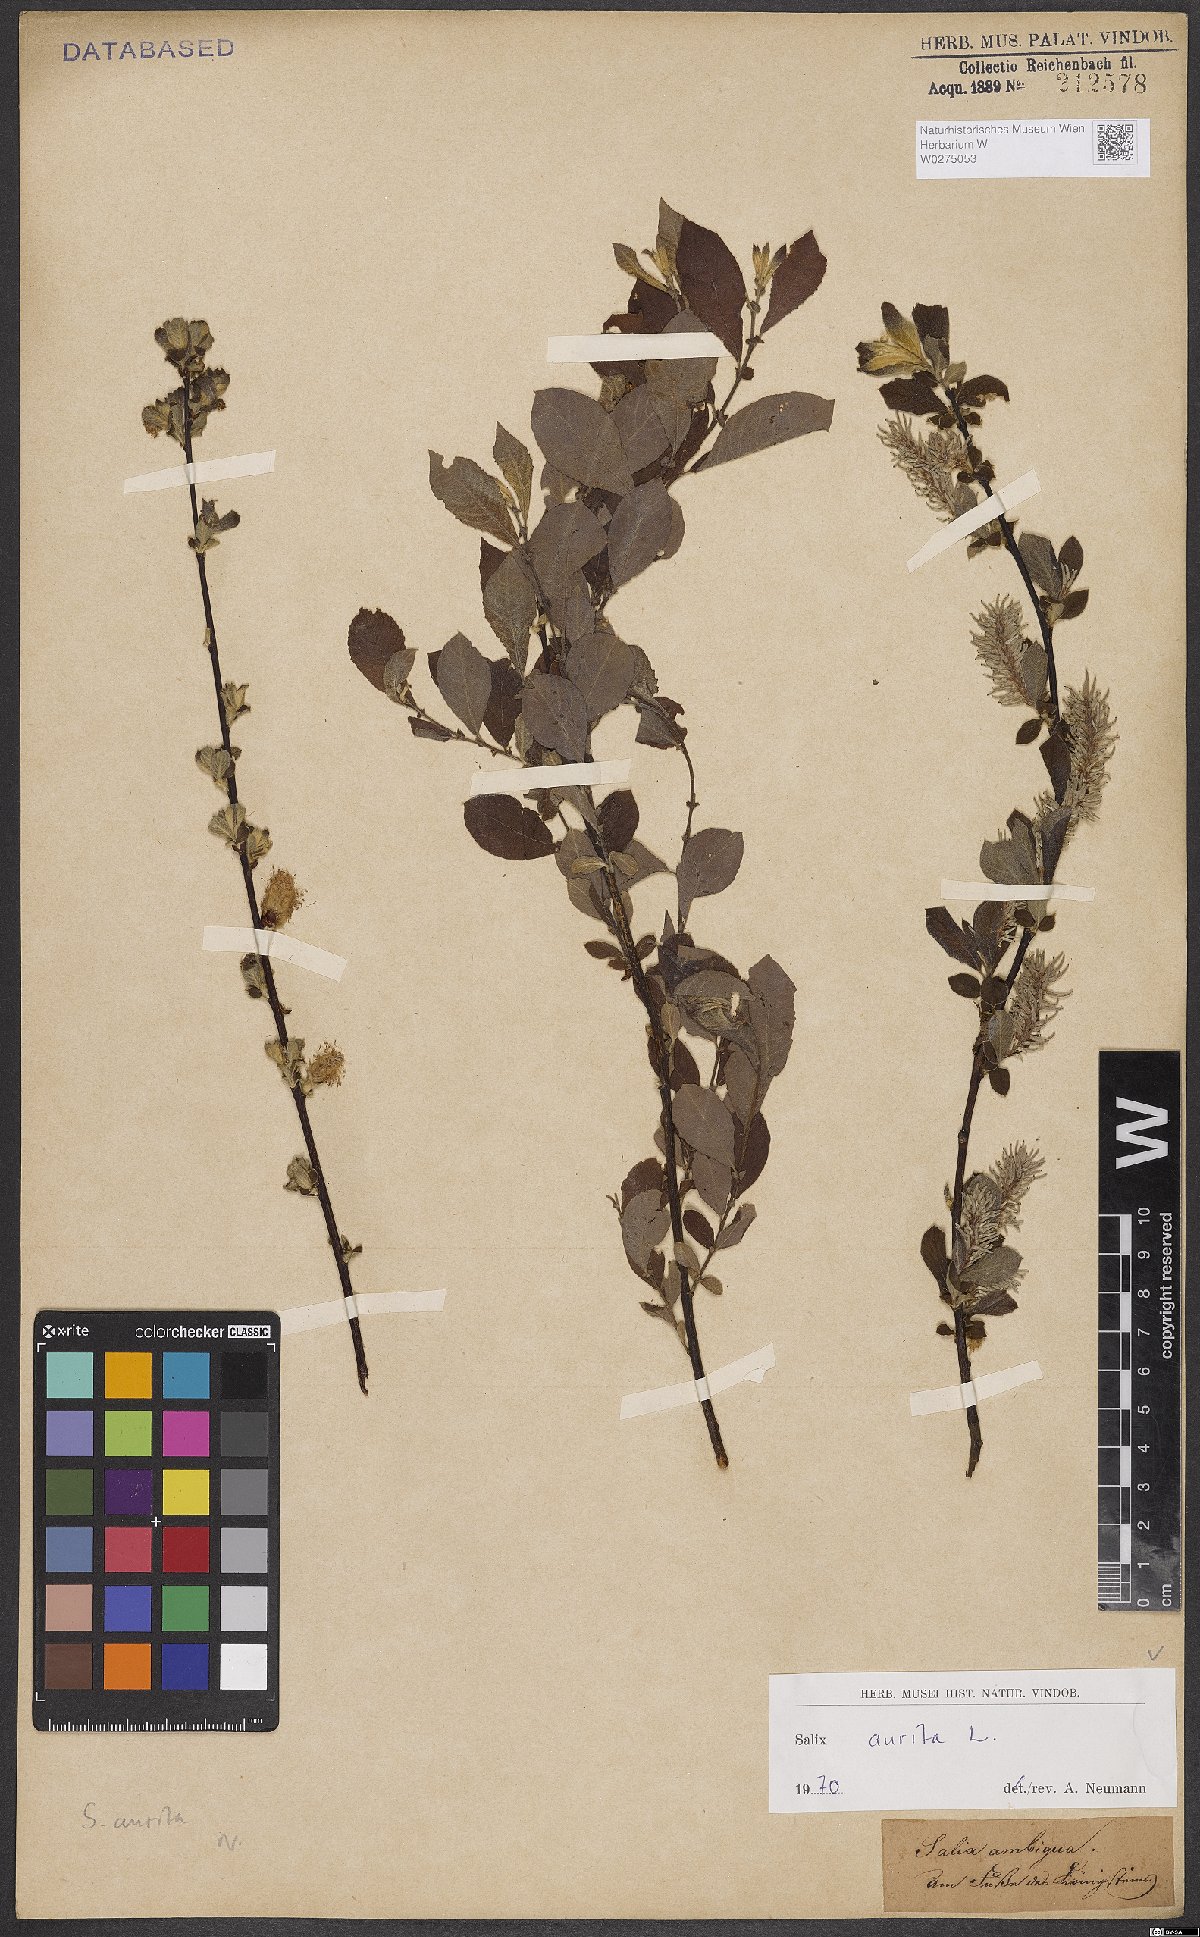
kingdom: Plantae
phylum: Tracheophyta
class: Magnoliopsida
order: Malpighiales
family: Salicaceae
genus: Salix
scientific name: Salix aurita
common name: Eared willow
